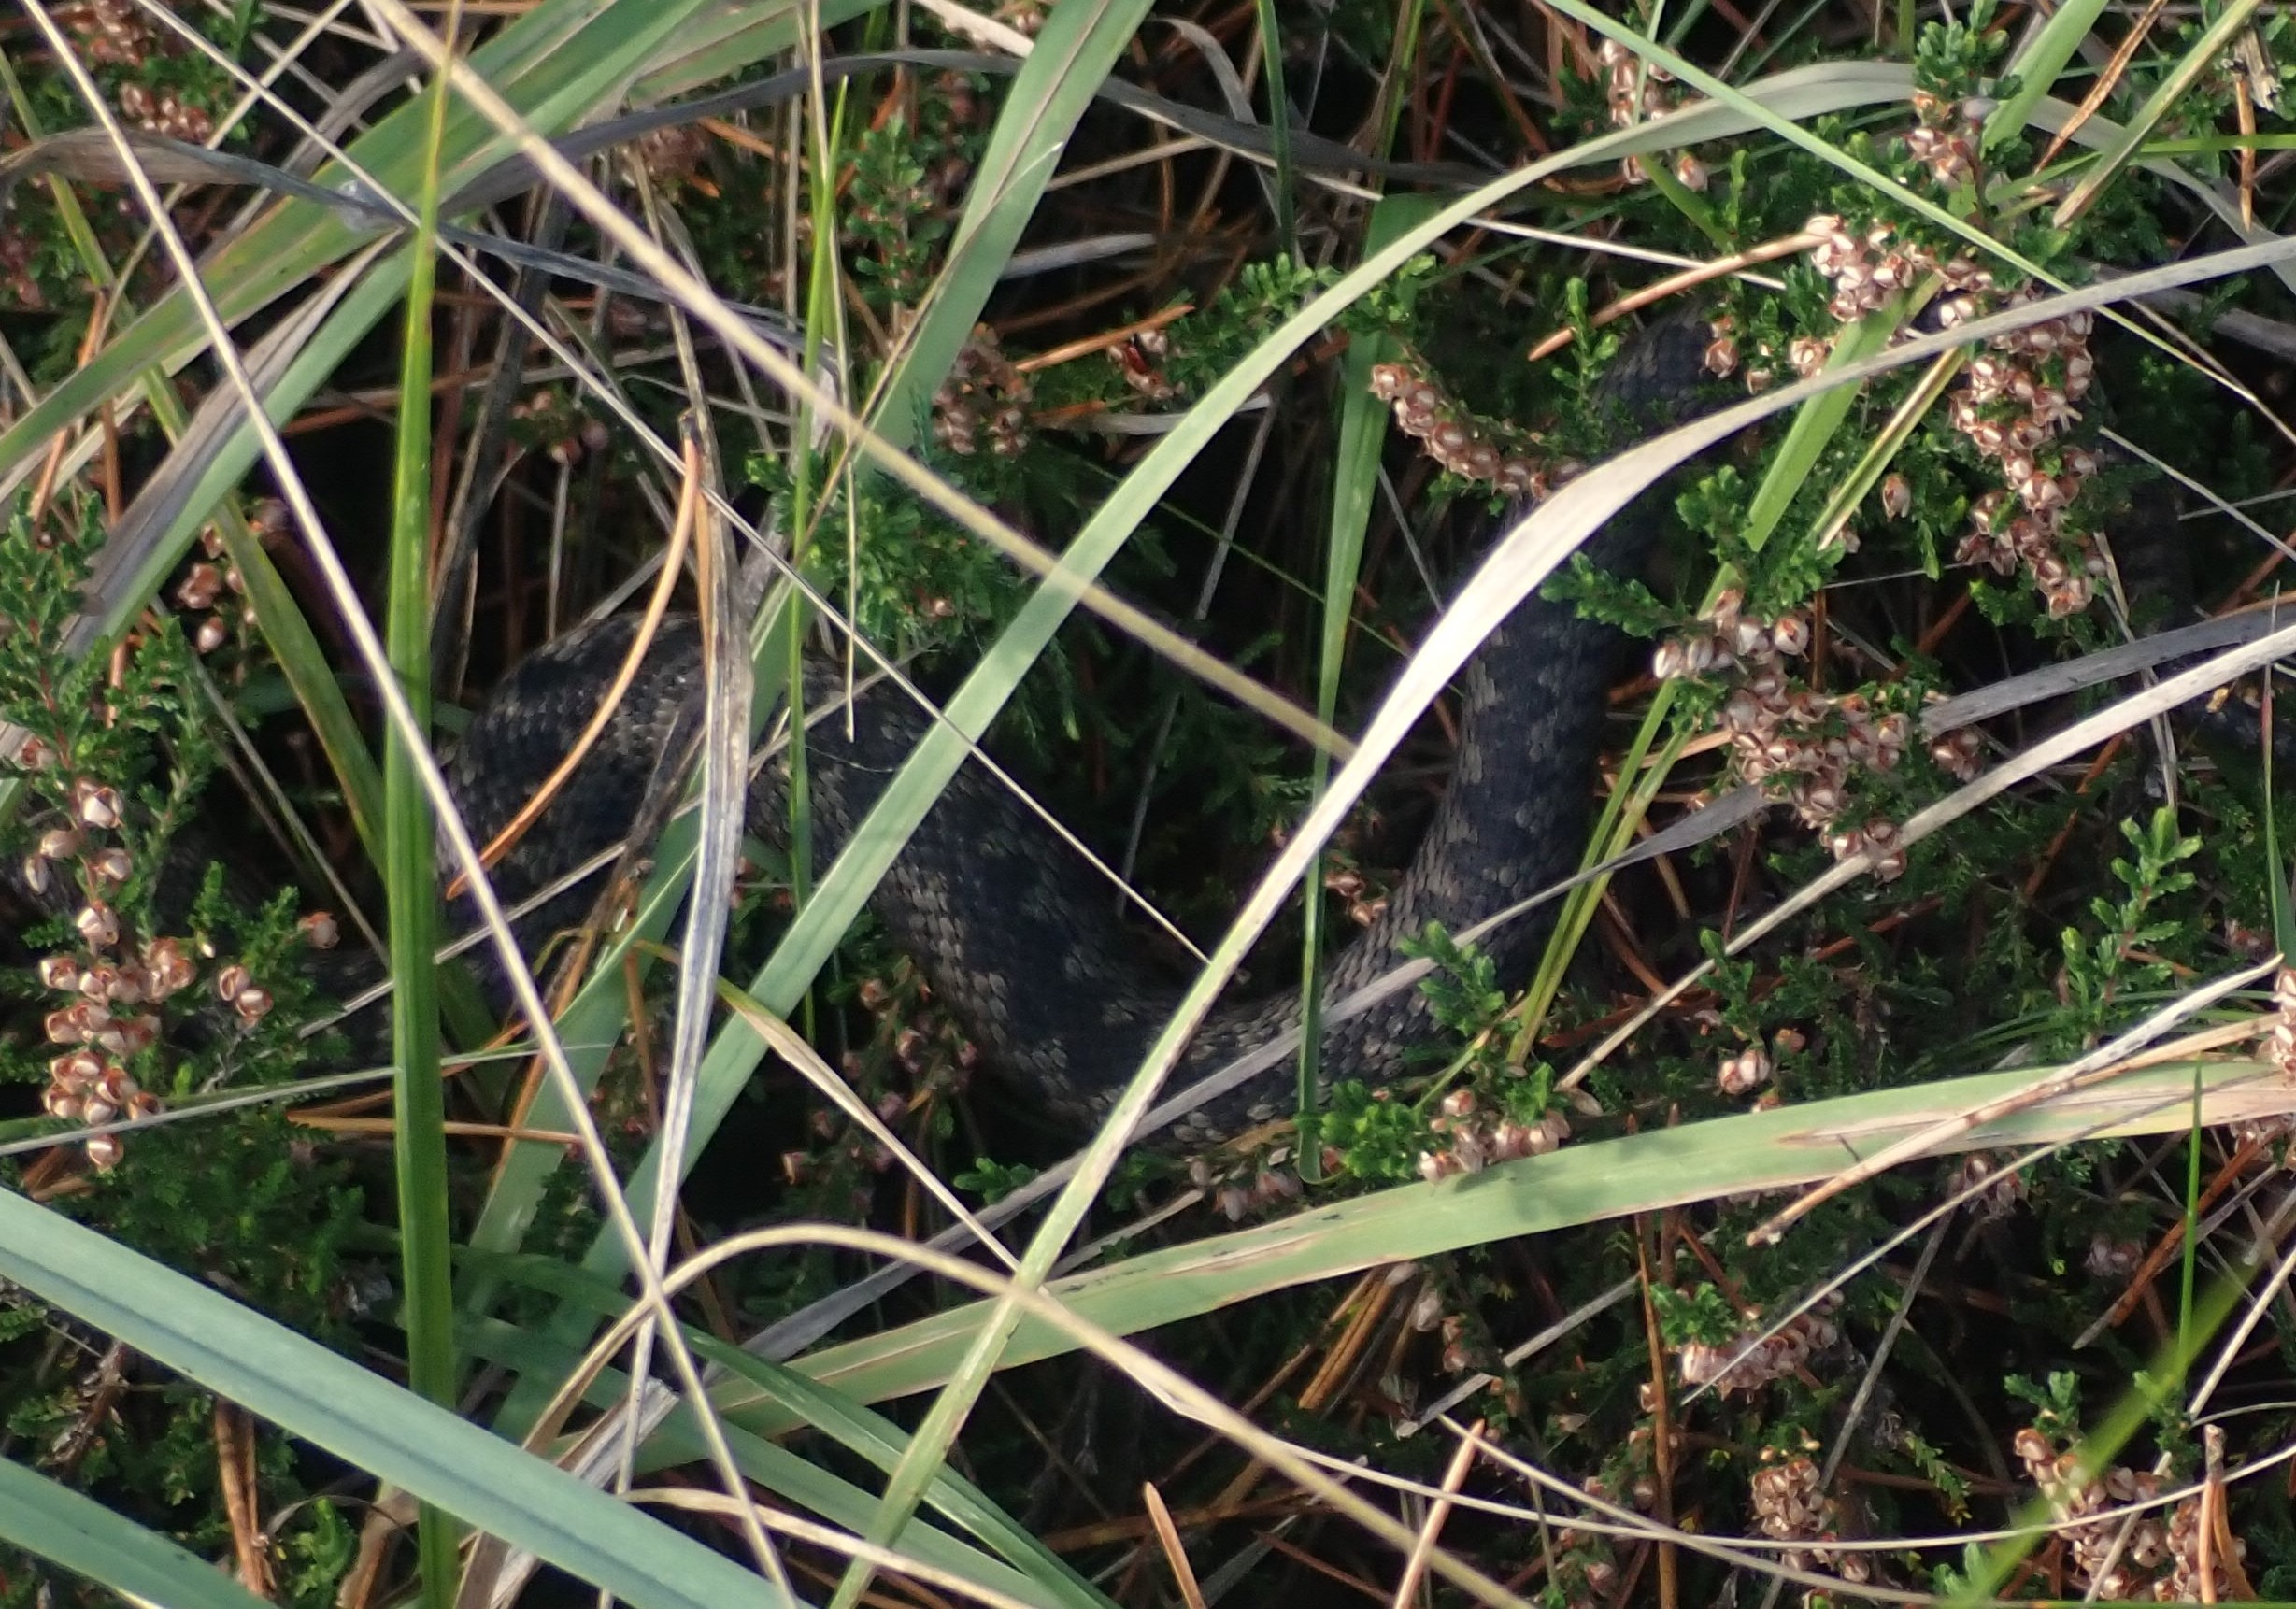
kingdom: Animalia
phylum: Chordata
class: Squamata
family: Viperidae
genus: Vipera
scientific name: Vipera berus
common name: Hugorm
